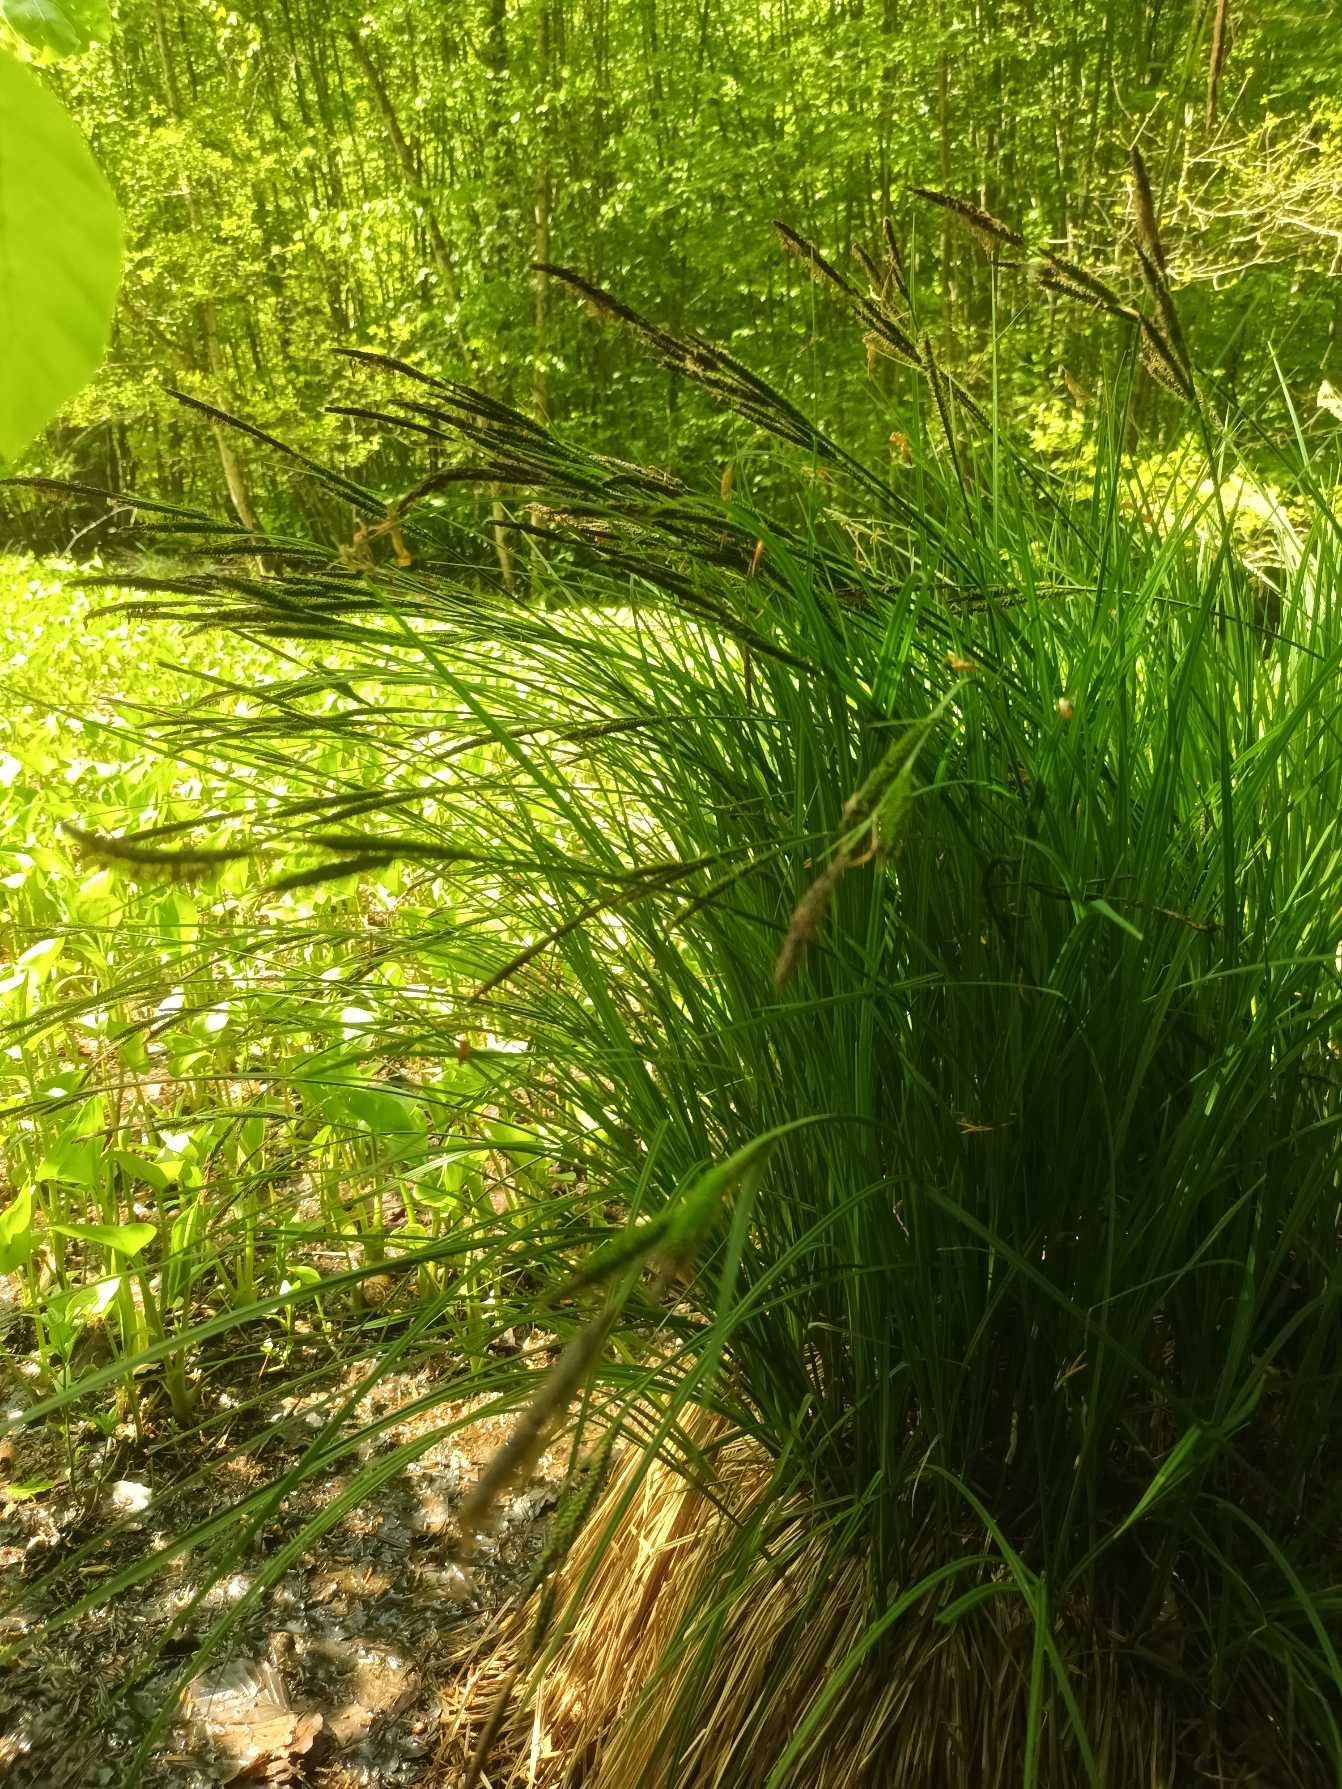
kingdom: Plantae
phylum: Tracheophyta
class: Liliopsida
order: Poales
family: Cyperaceae
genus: Carex
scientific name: Carex elata
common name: Stiv star
